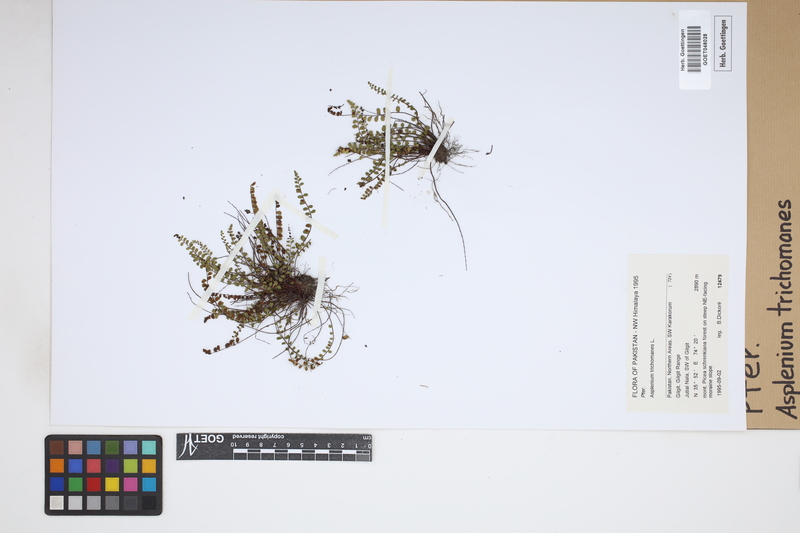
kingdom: Plantae
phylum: Tracheophyta
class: Polypodiopsida
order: Polypodiales
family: Aspleniaceae
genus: Asplenium
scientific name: Asplenium trichomanes
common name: Maidenhair spleenwort
